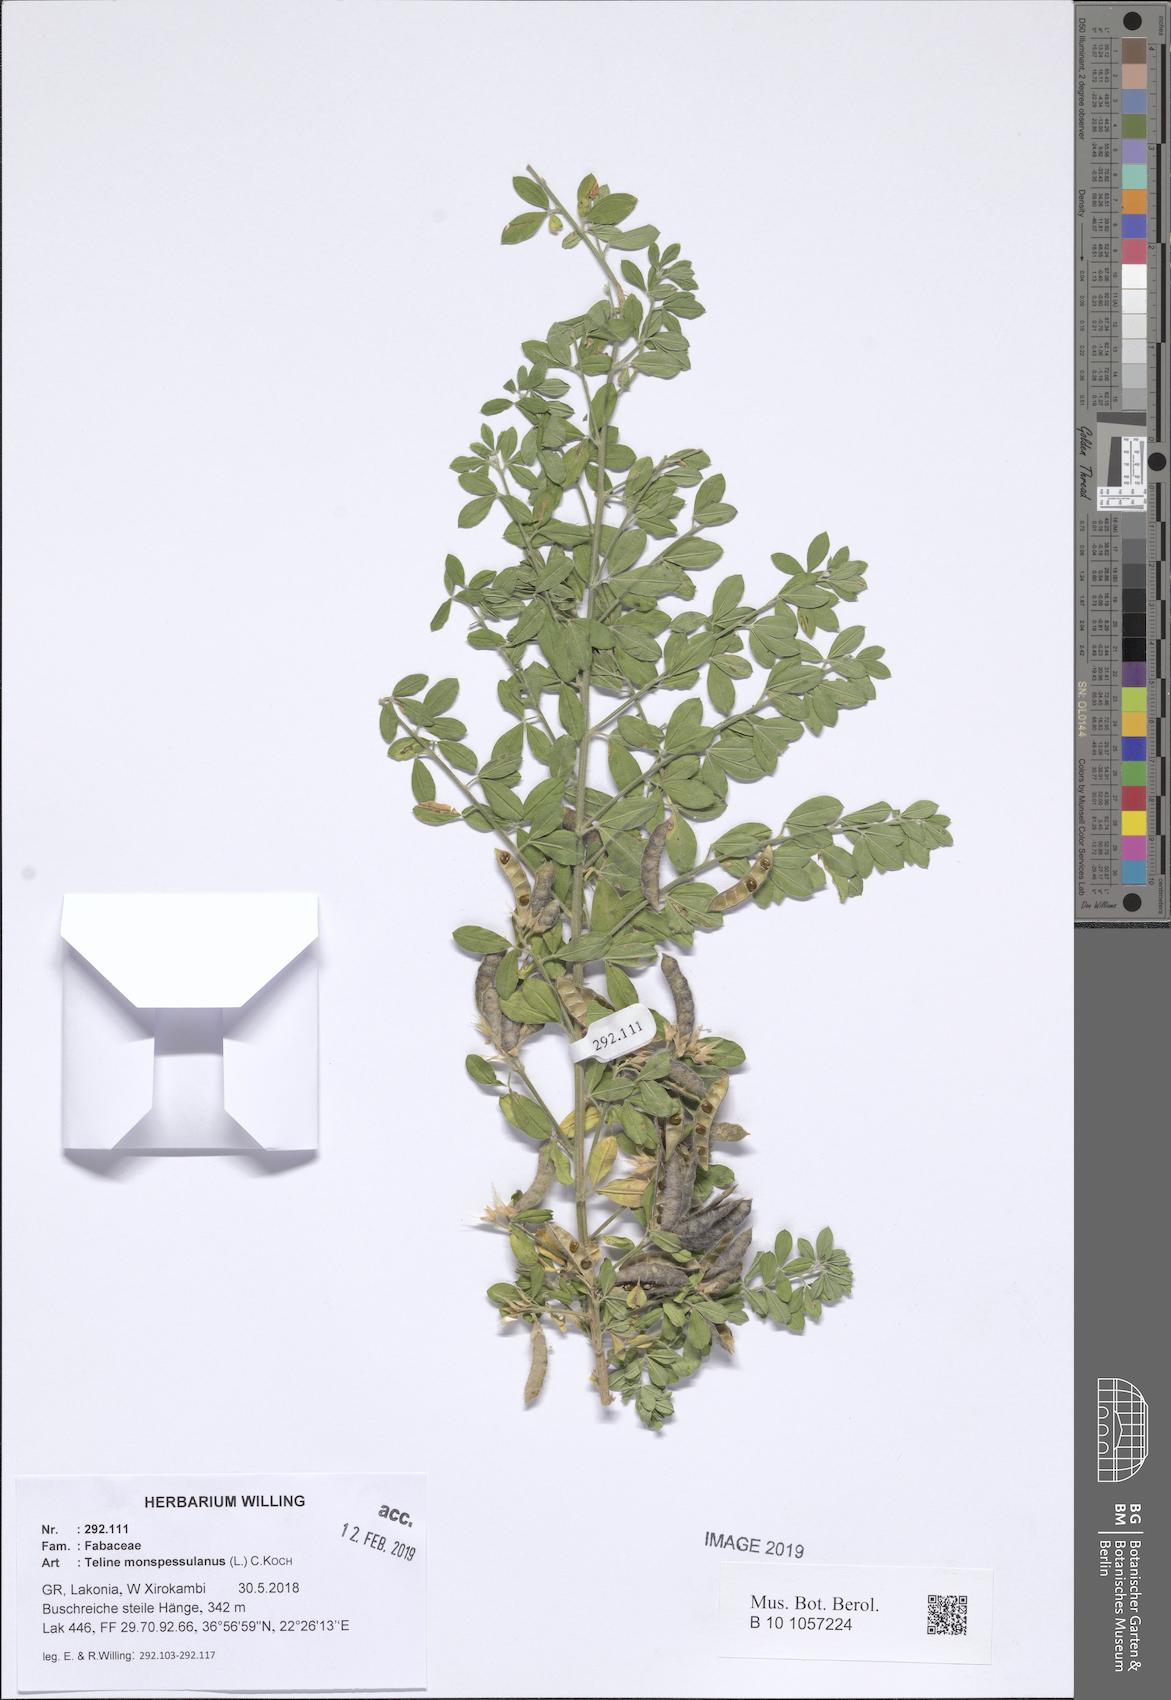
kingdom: Plantae
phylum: Tracheophyta
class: Magnoliopsida
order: Fabales
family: Fabaceae
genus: Genista
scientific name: Genista monspessulana
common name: Montpellier broom
